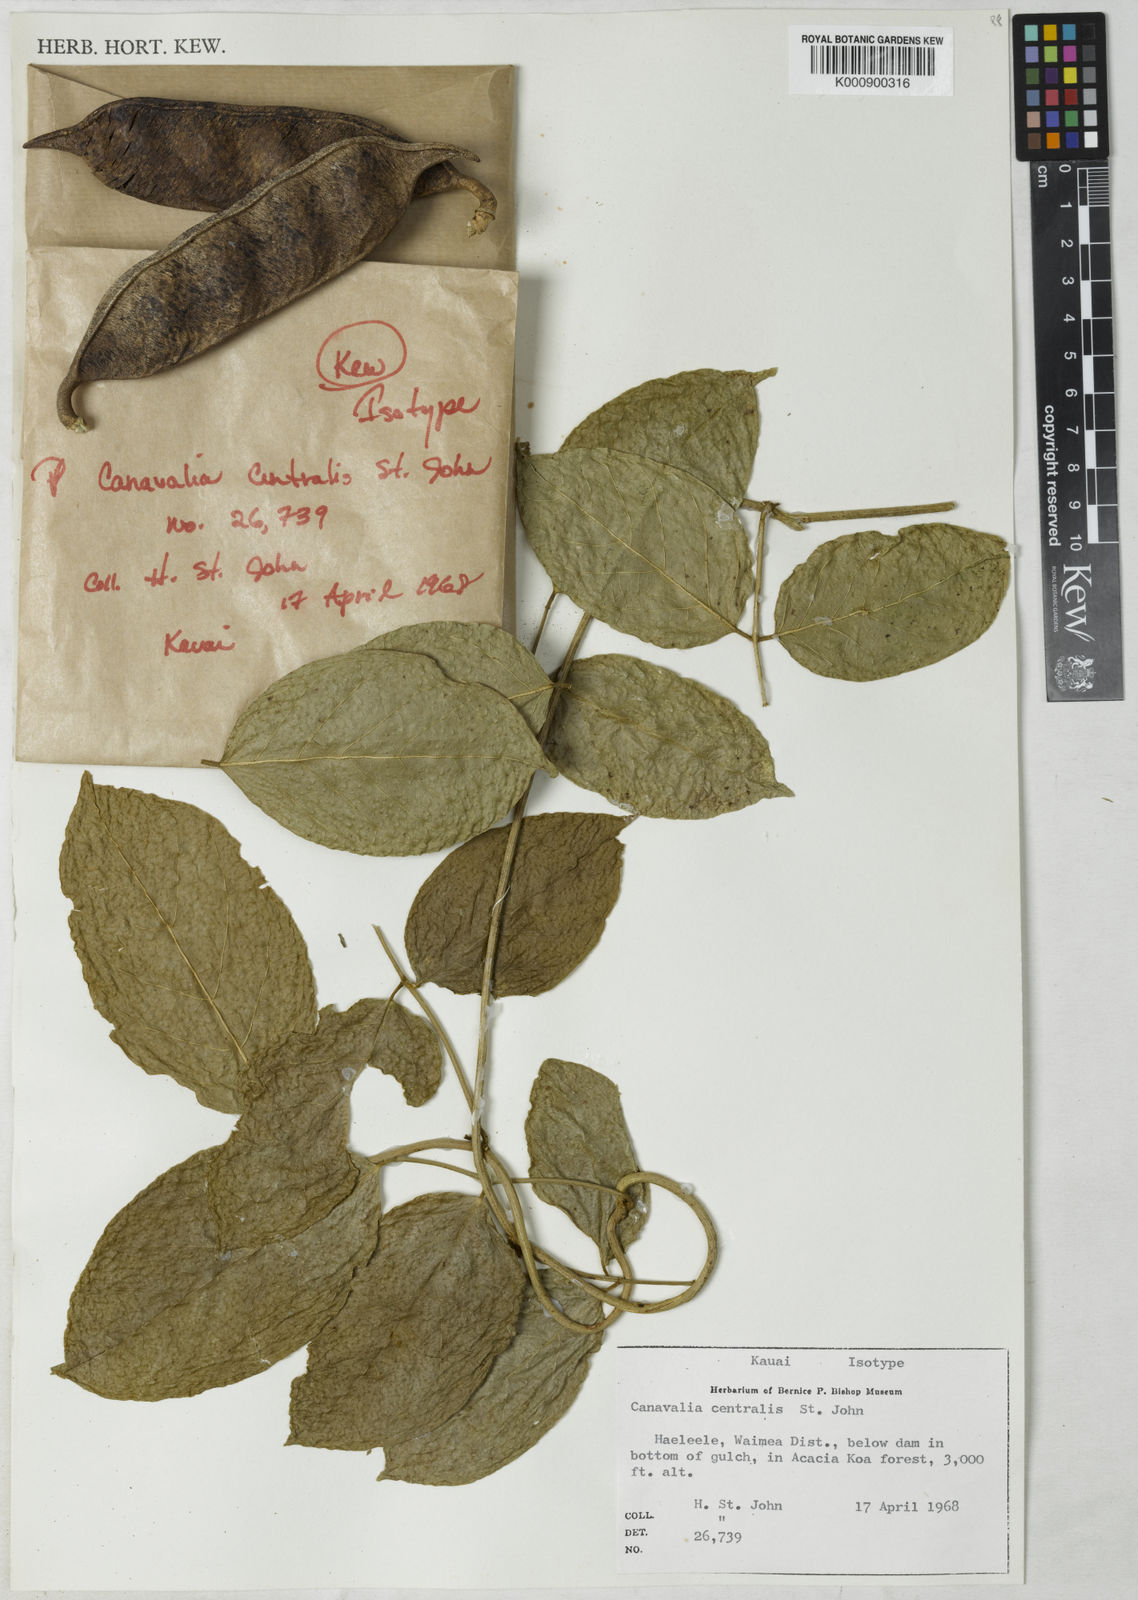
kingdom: Plantae
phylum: Tracheophyta
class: Magnoliopsida
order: Fabales
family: Fabaceae
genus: Canavalia
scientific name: Canavalia kauaiensis
